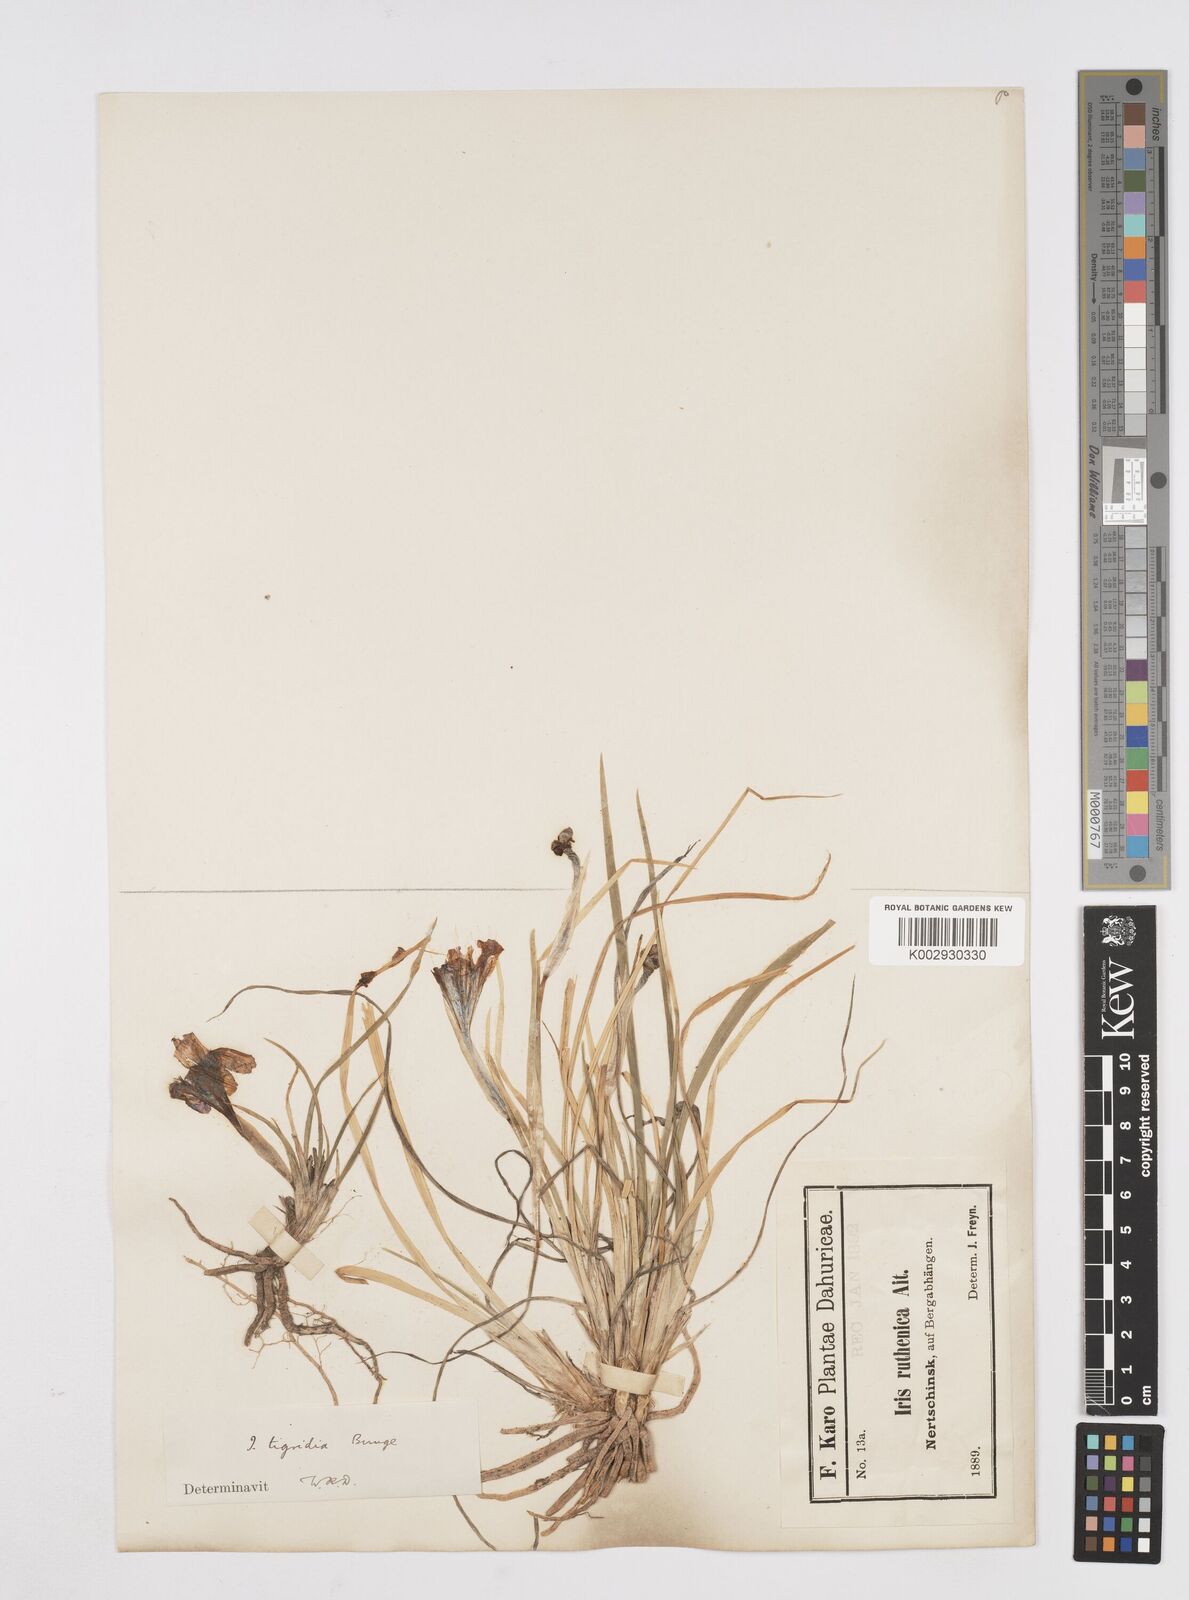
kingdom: Plantae
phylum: Tracheophyta
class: Liliopsida
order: Asparagales
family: Iridaceae
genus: Iris
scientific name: Iris tigridia
